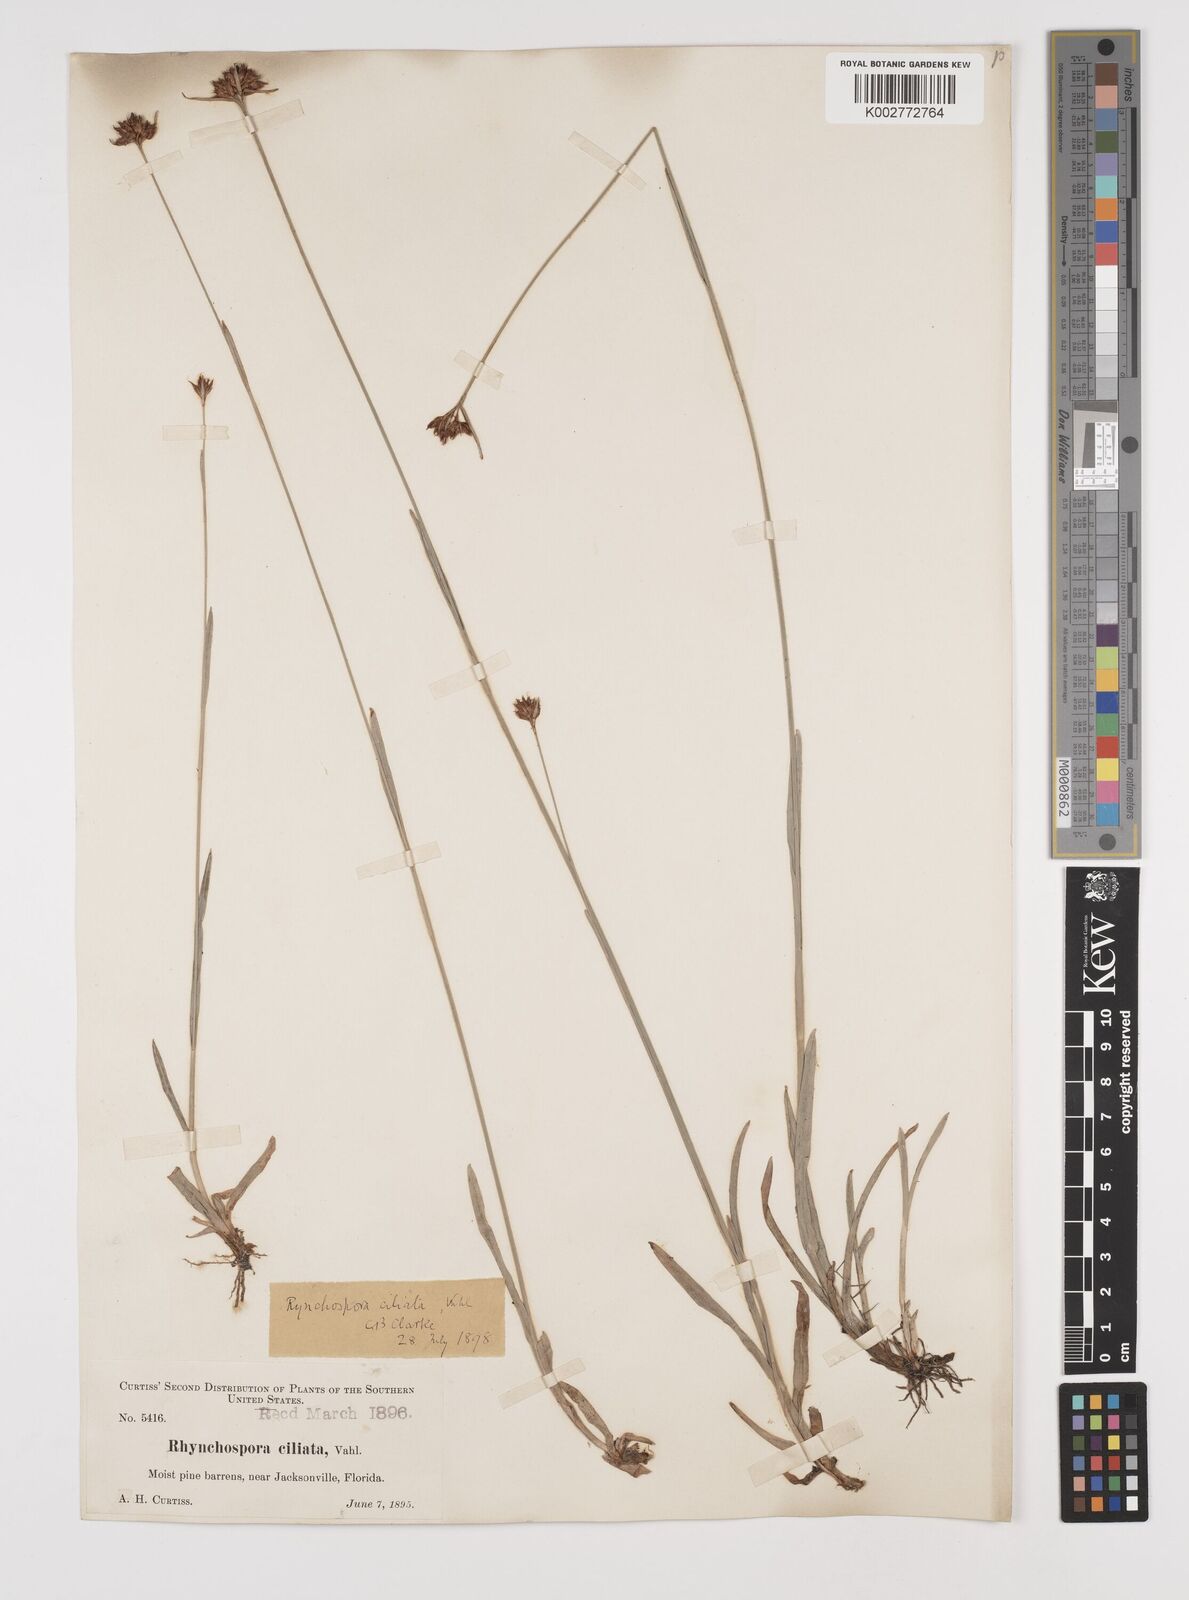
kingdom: Plantae
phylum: Tracheophyta
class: Liliopsida
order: Poales
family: Cyperaceae
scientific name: Cyperaceae
